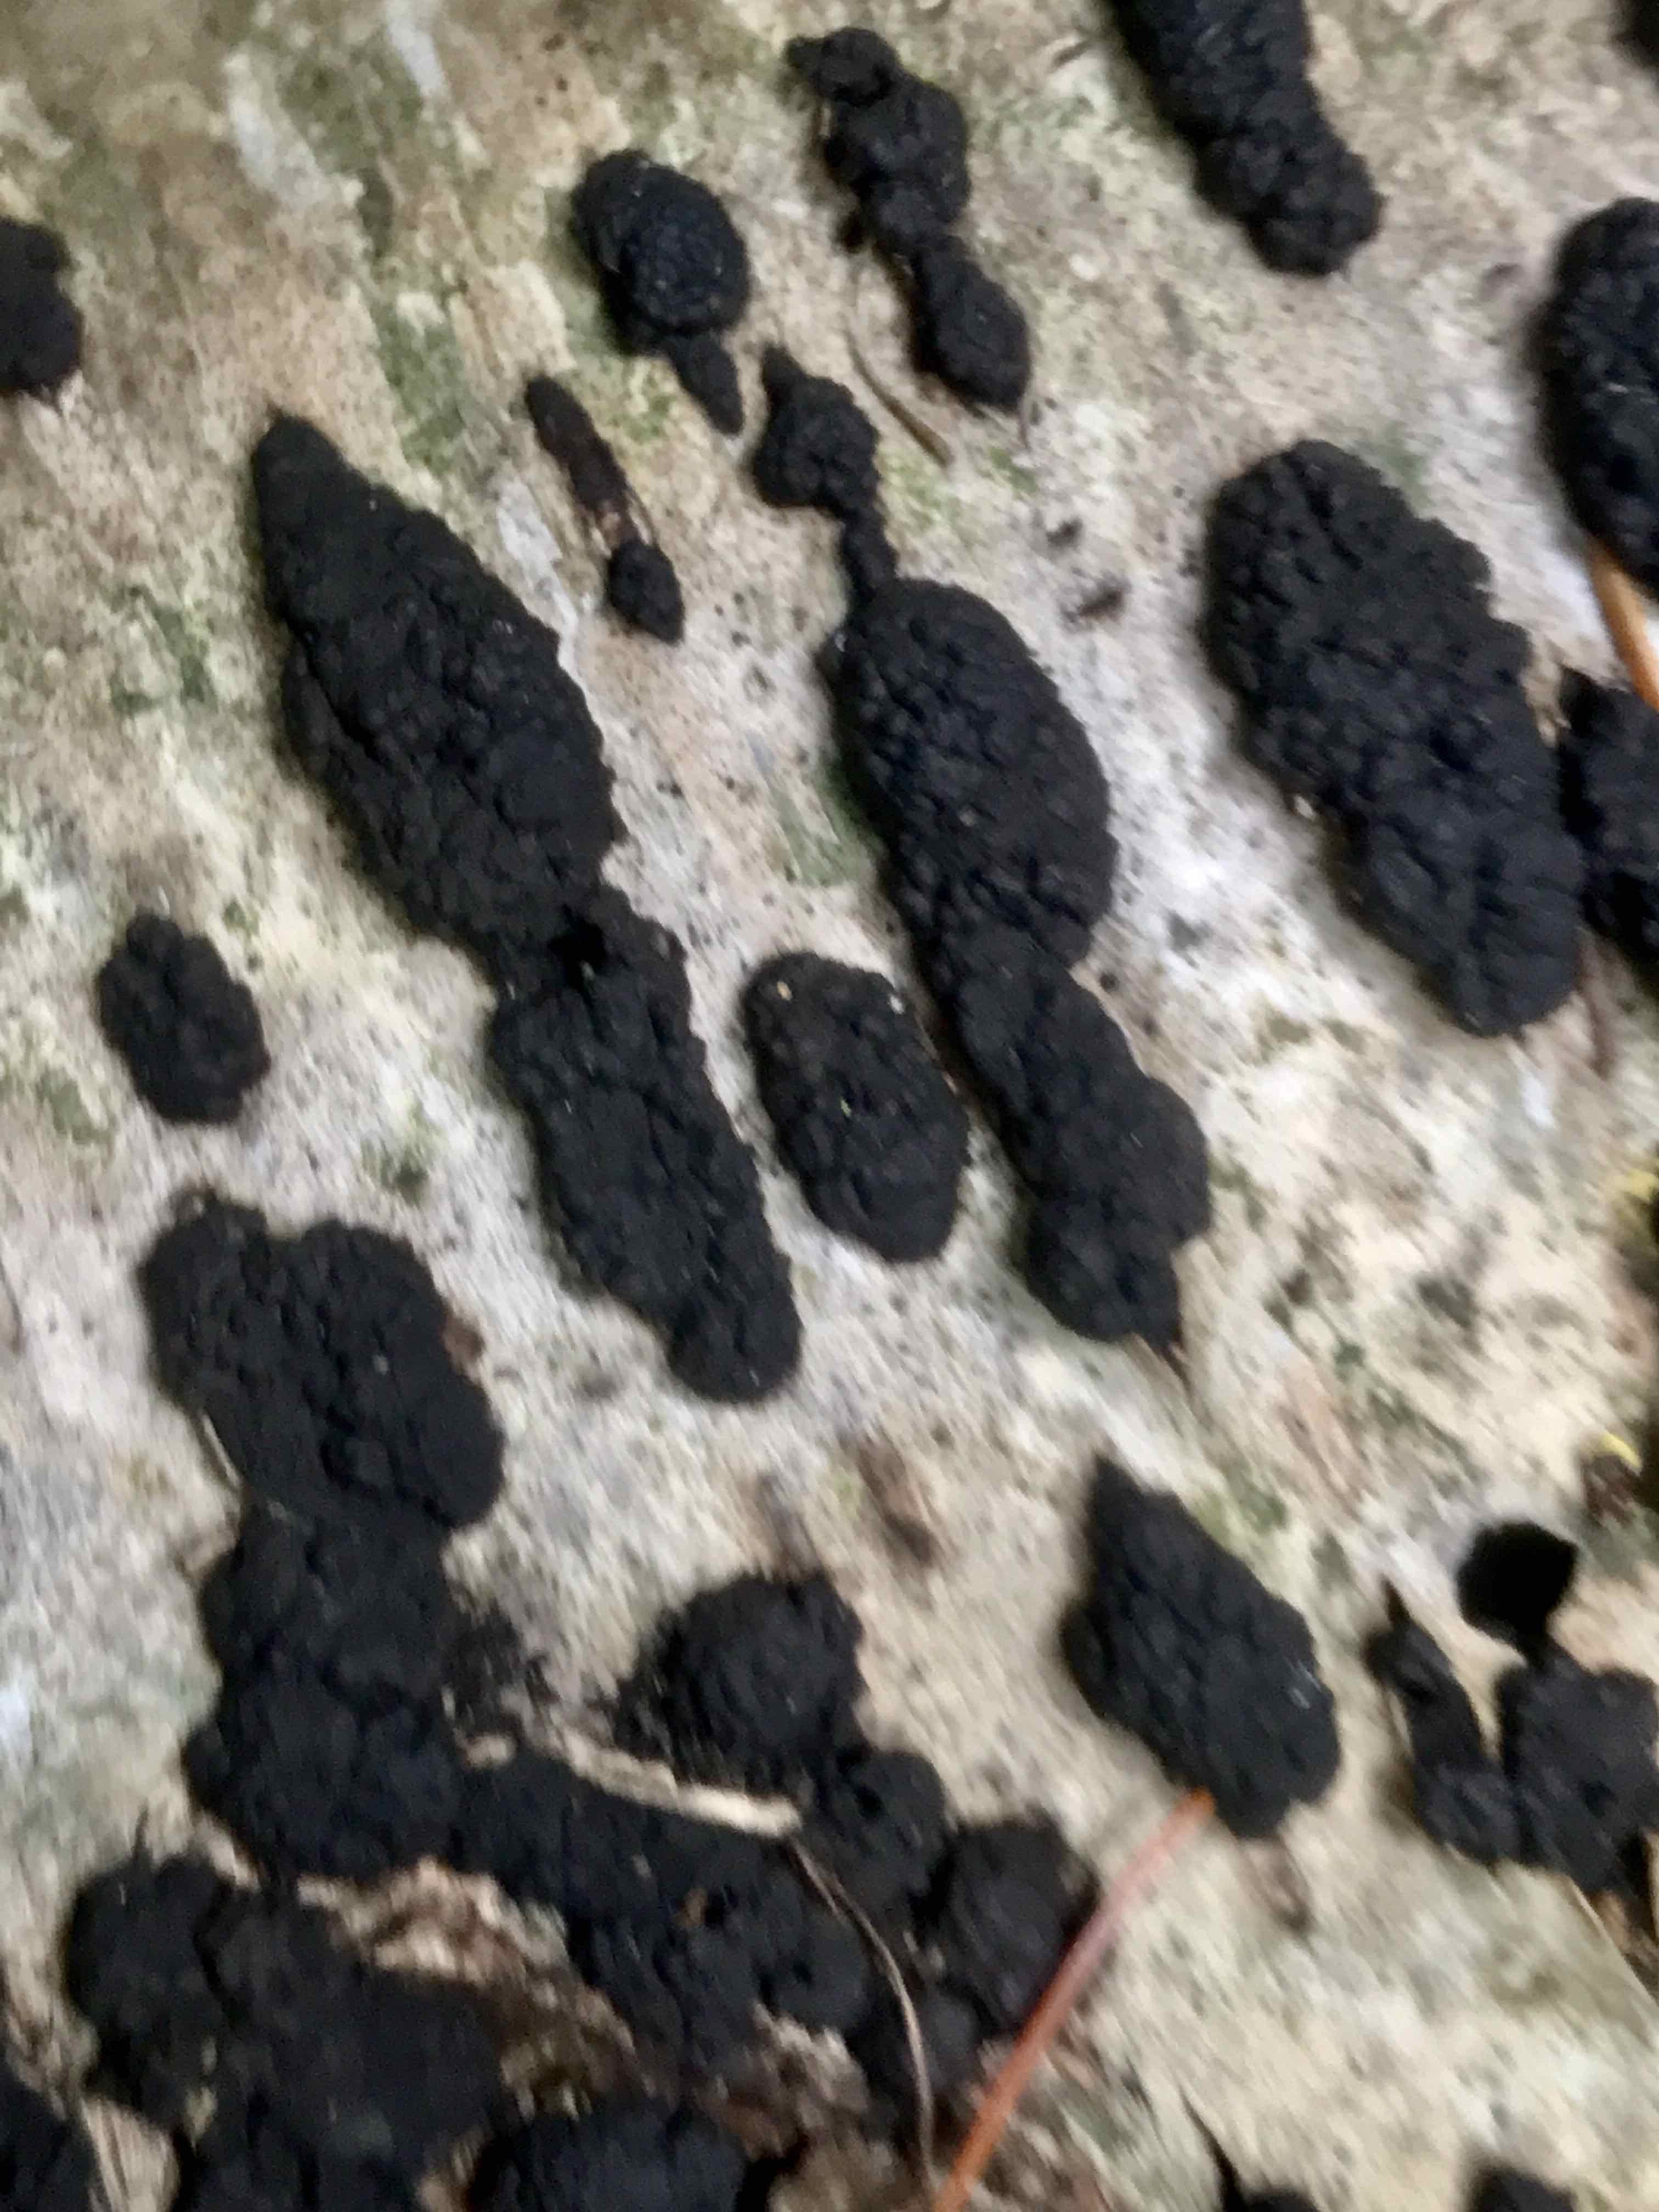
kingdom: Fungi
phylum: Ascomycota
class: Sordariomycetes
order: Xylariales
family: Hypoxylaceae
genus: Jackrogersella
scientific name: Jackrogersella multiformis
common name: foranderlig kulbær
